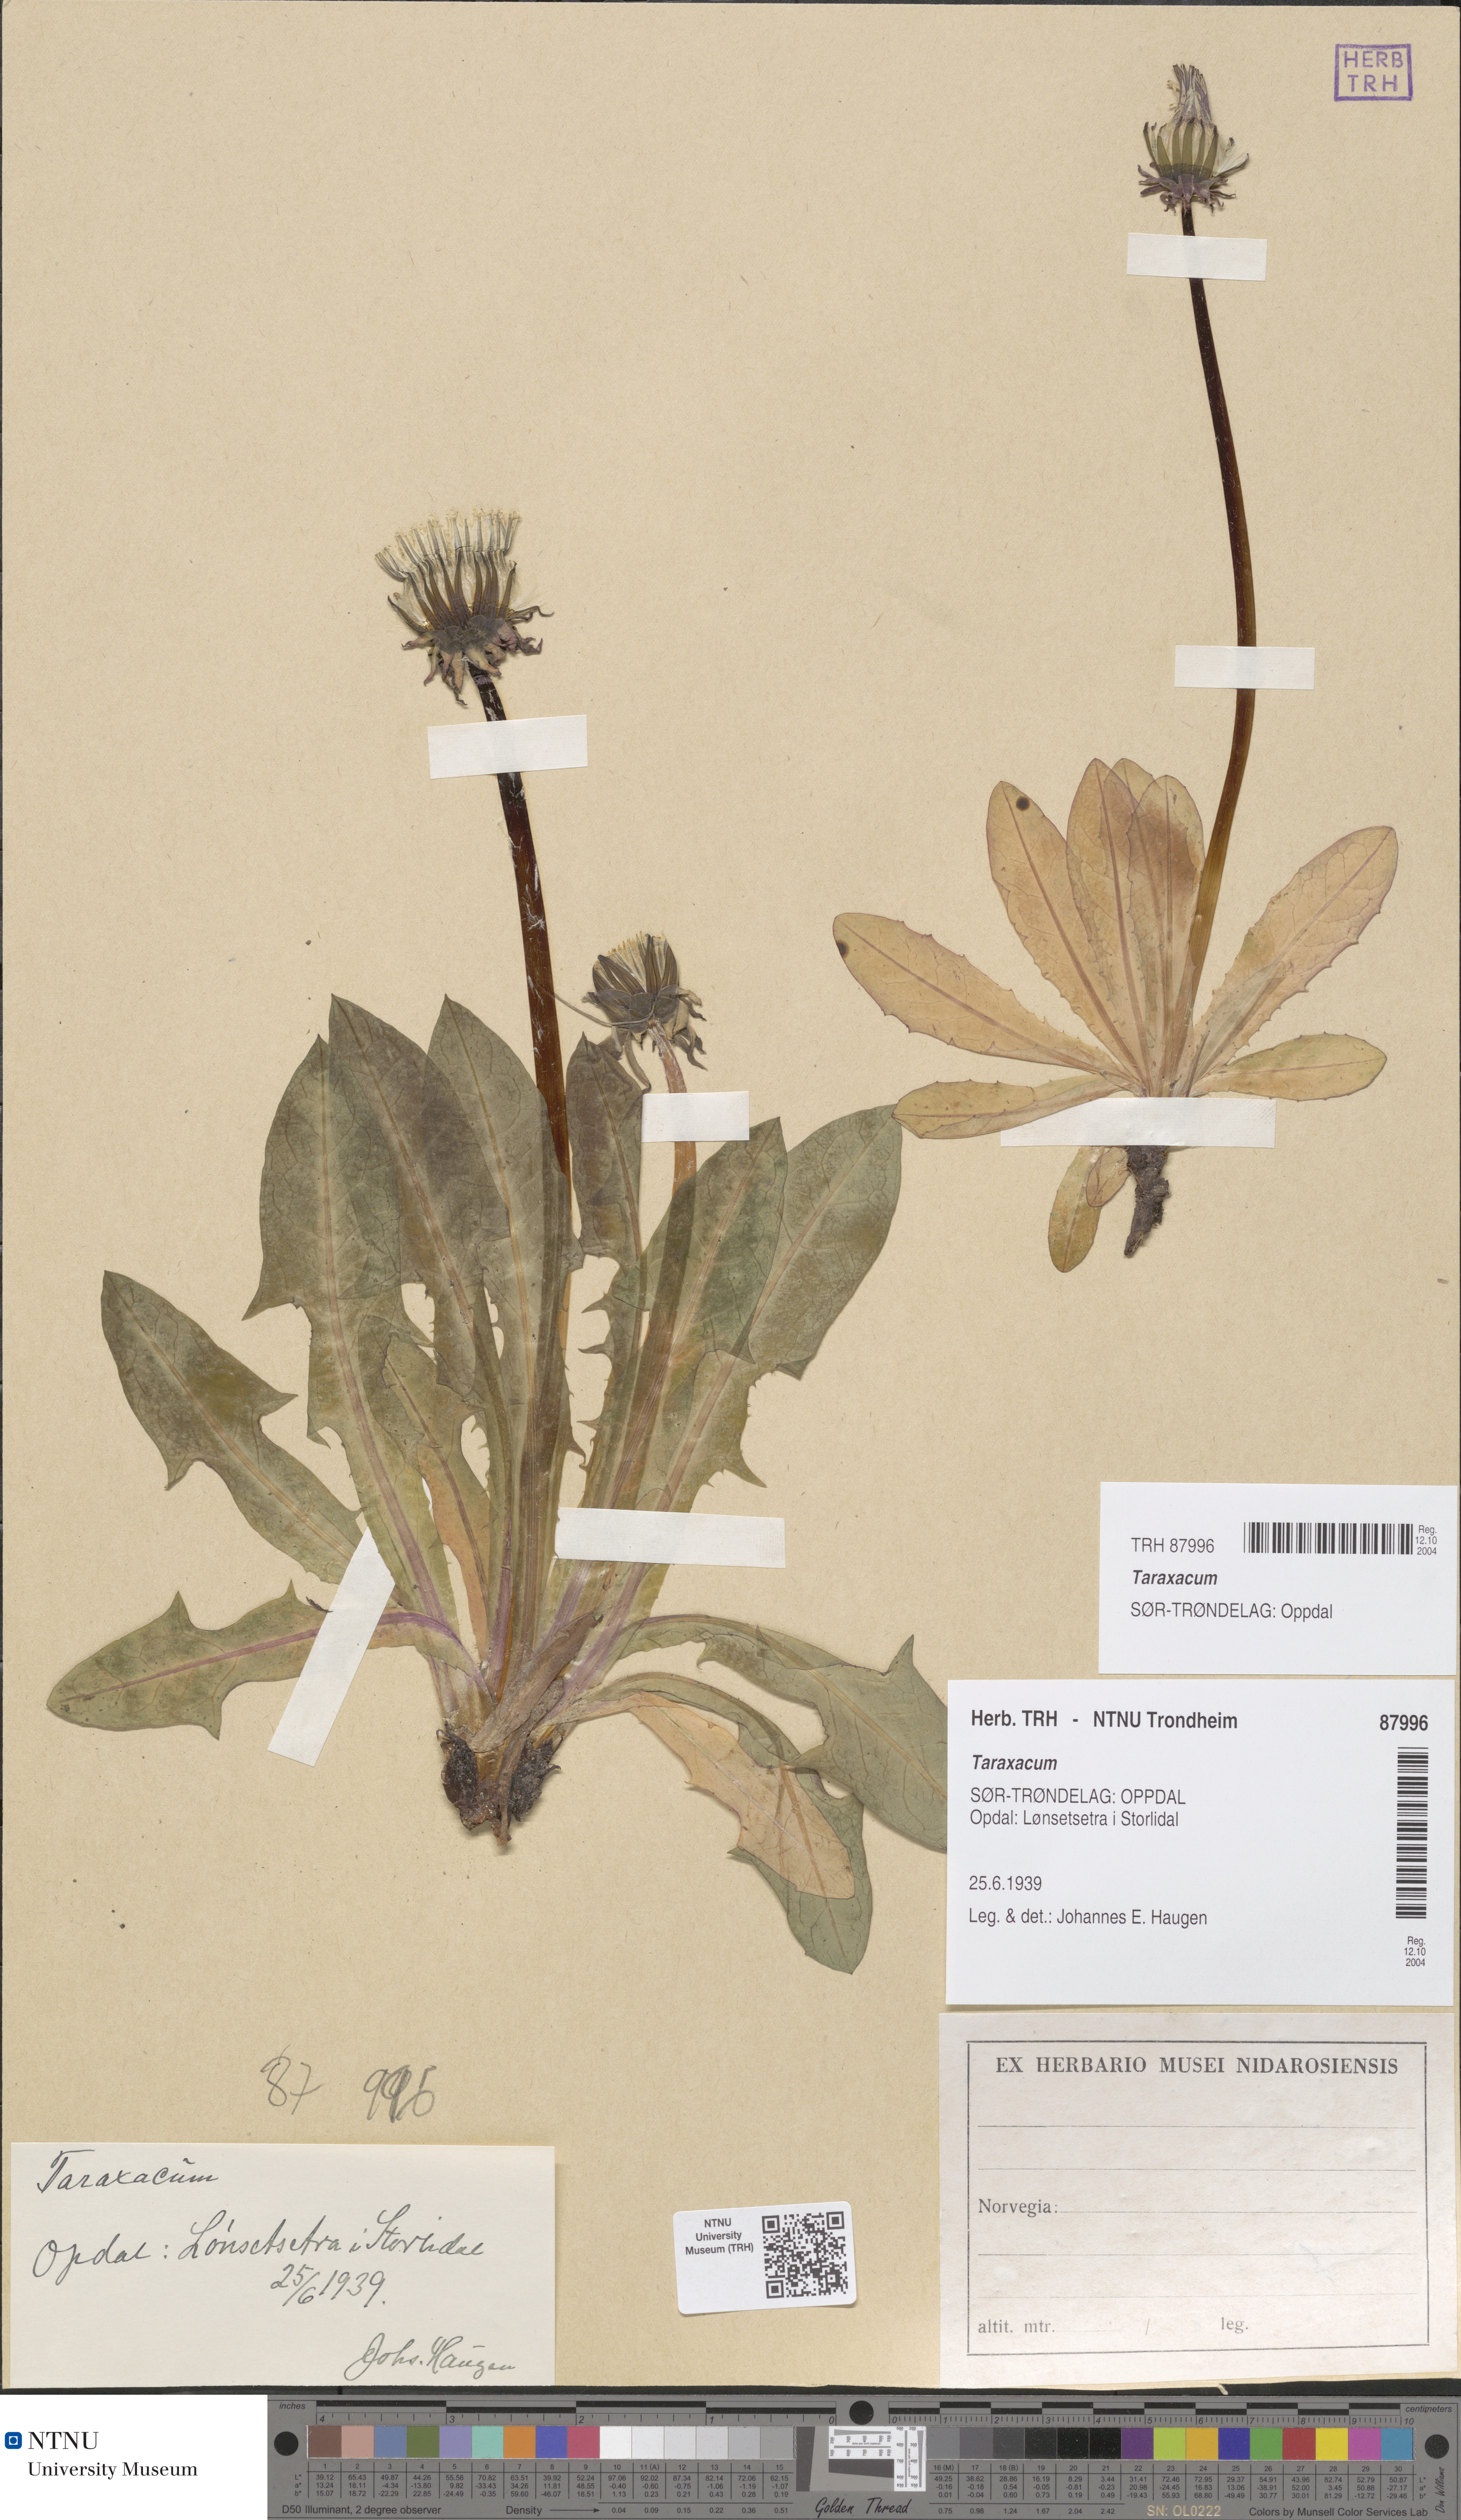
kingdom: Plantae
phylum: Tracheophyta
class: Magnoliopsida
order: Asterales
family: Asteraceae
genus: Taraxacum
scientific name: Taraxacum
